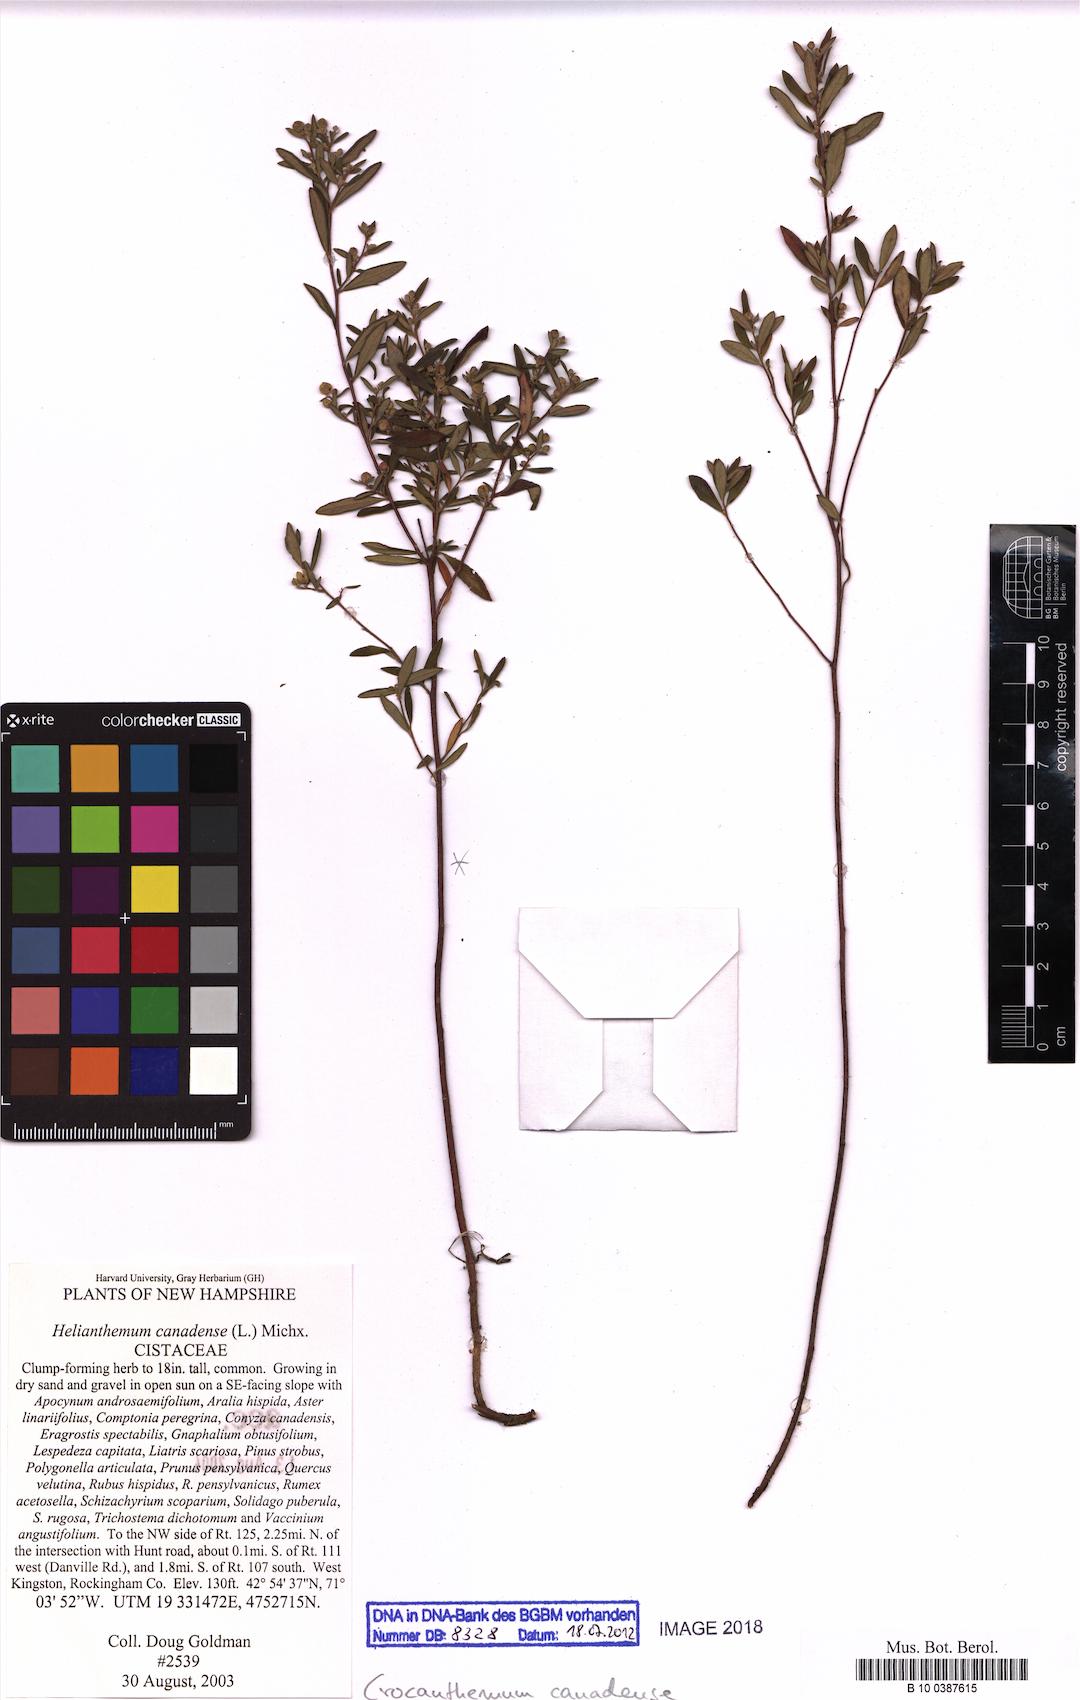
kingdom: Plantae
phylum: Tracheophyta
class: Magnoliopsida
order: Malvales
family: Cistaceae
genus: Crocanthemum
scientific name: Crocanthemum canadense
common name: Canada frostweed
